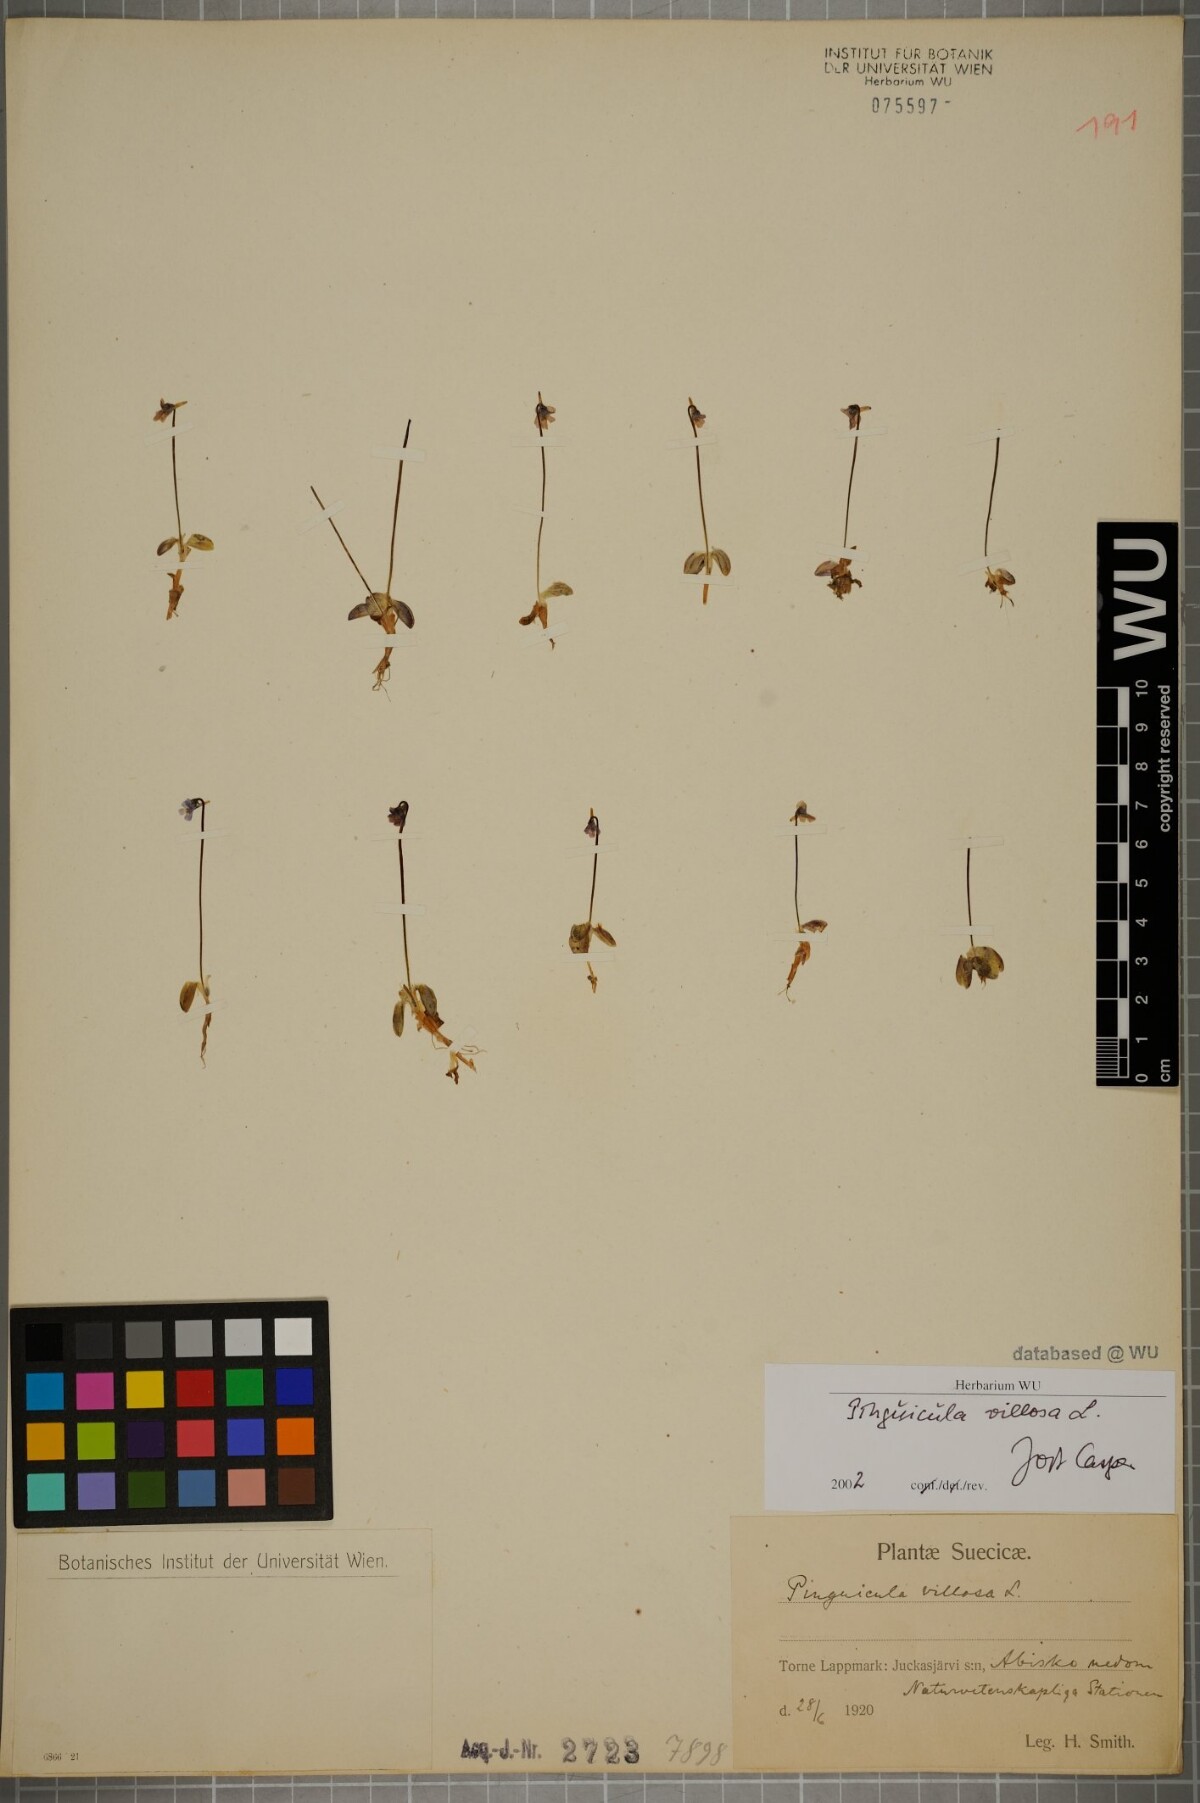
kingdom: Plantae
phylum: Tracheophyta
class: Magnoliopsida
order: Lamiales
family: Lentibulariaceae
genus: Pinguicula
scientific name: Pinguicula villosa
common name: Hairy butterwort
